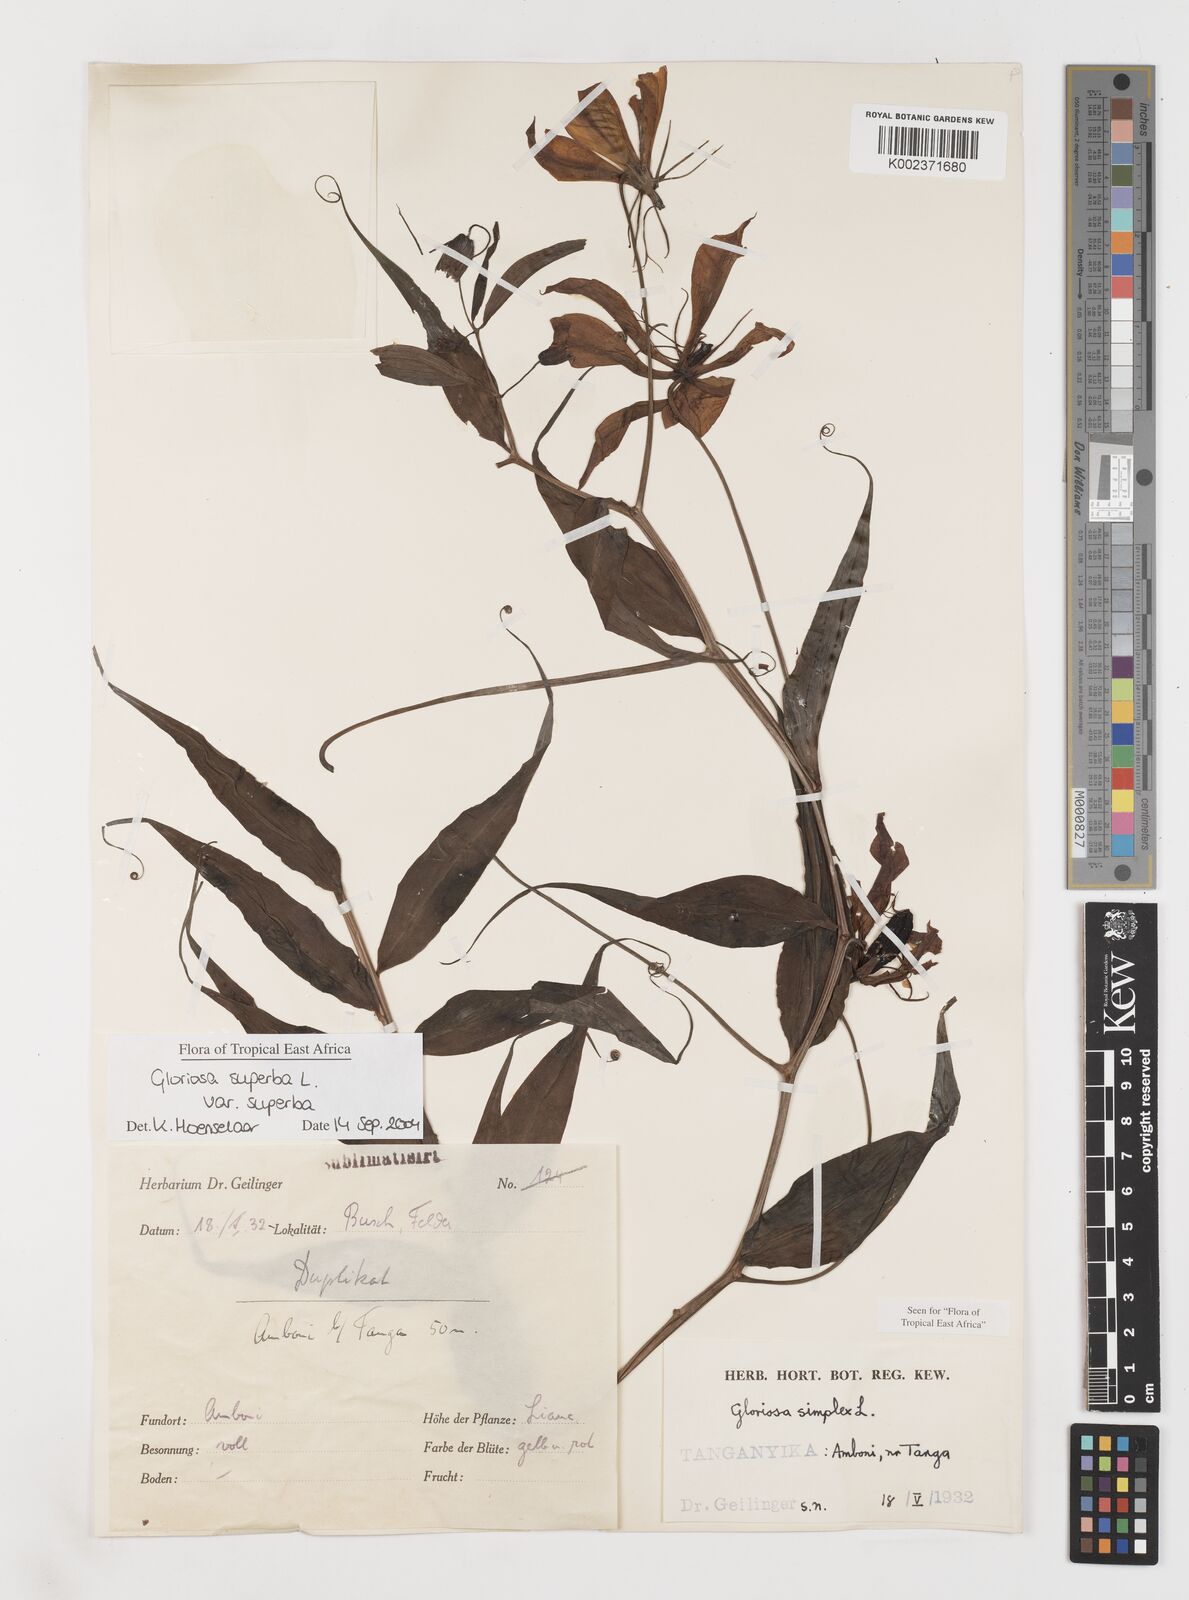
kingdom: Plantae
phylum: Tracheophyta
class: Liliopsida
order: Liliales
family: Colchicaceae
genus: Gloriosa
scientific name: Gloriosa simplex
